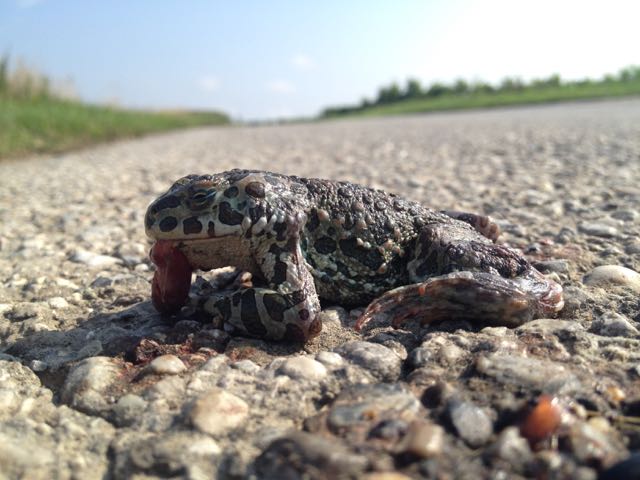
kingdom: Animalia
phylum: Chordata
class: Amphibia
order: Anura
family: Bufonidae
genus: Bufotes
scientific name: Bufotes viridis
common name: European green toad
